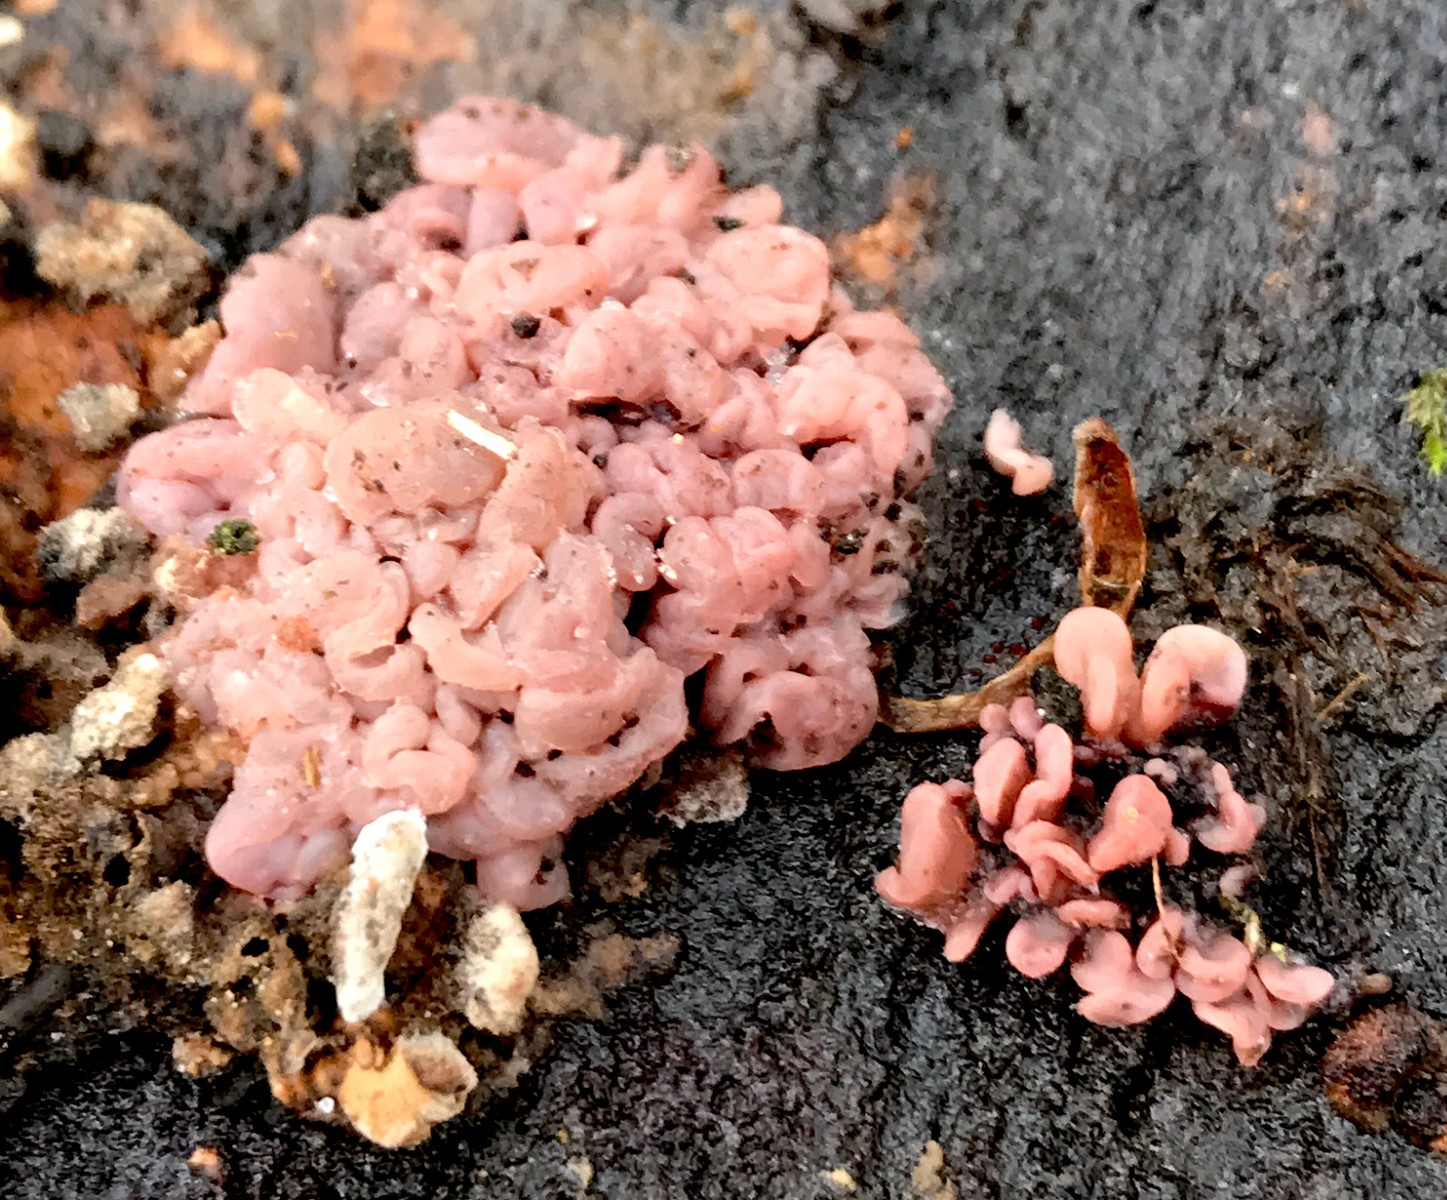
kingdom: Fungi
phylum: Ascomycota
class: Leotiomycetes
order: Helotiales
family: Gelatinodiscaceae
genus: Ascocoryne
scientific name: Ascocoryne sarcoides
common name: rødlilla sejskive
